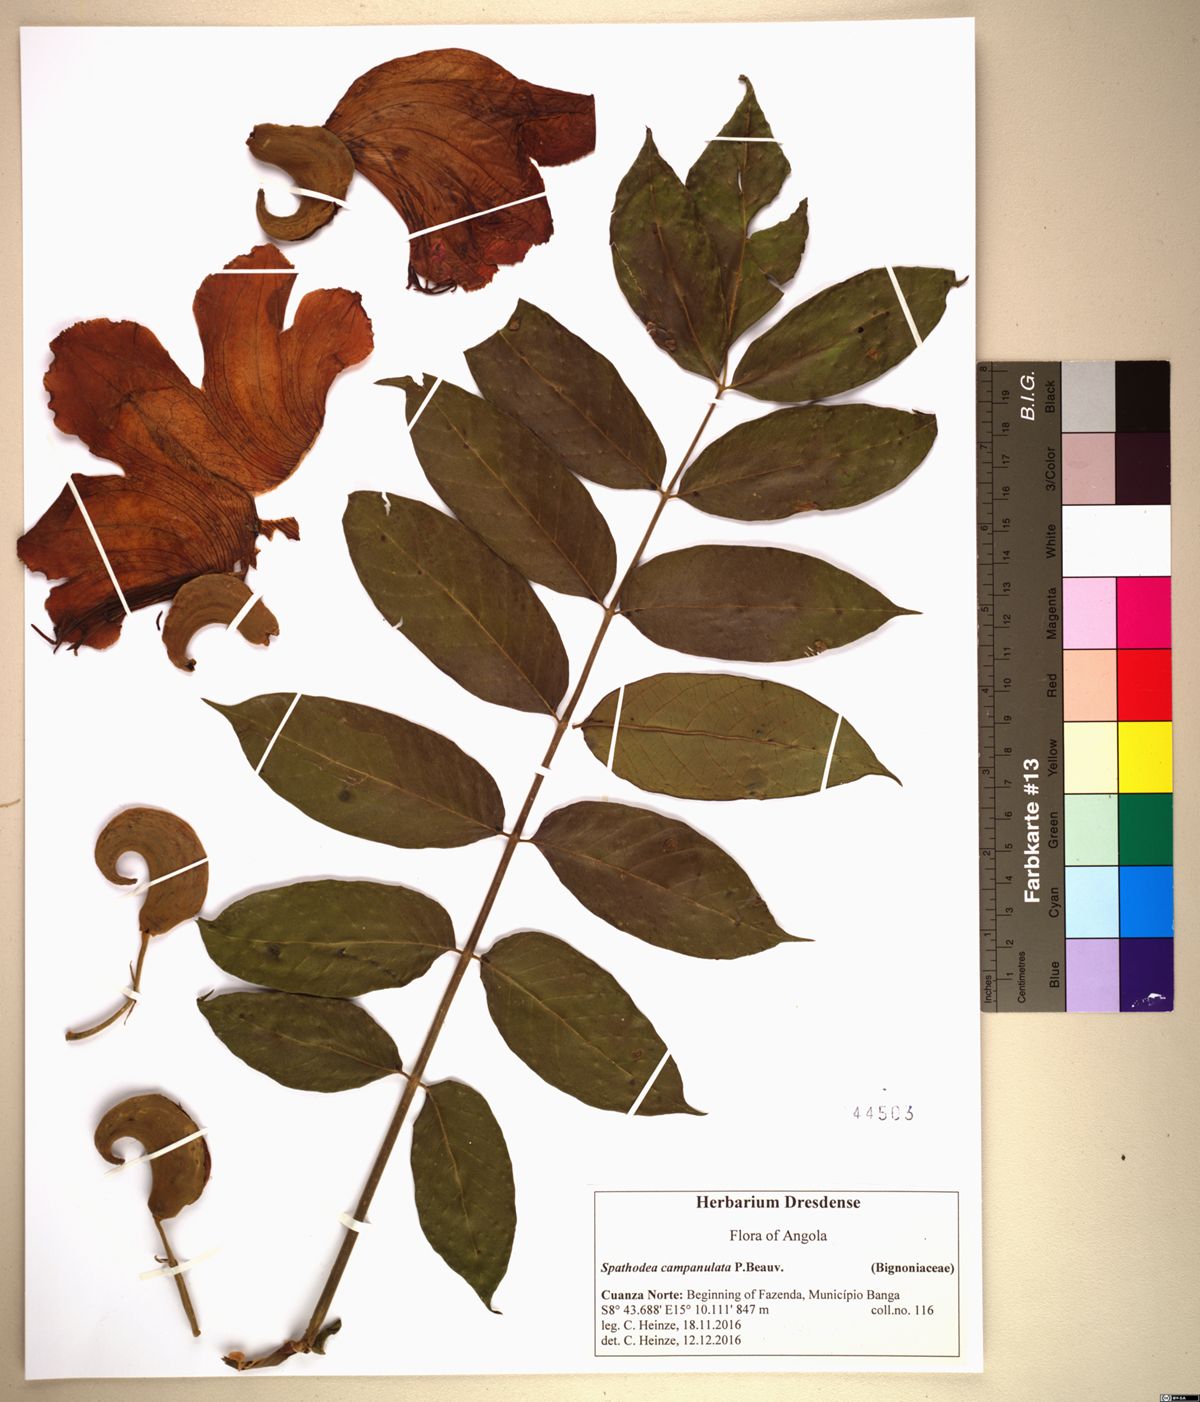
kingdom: Plantae
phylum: Tracheophyta
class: Magnoliopsida
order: Lamiales
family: Bignoniaceae
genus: Spathodea
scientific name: Spathodea campanulata
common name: African tuliptree
